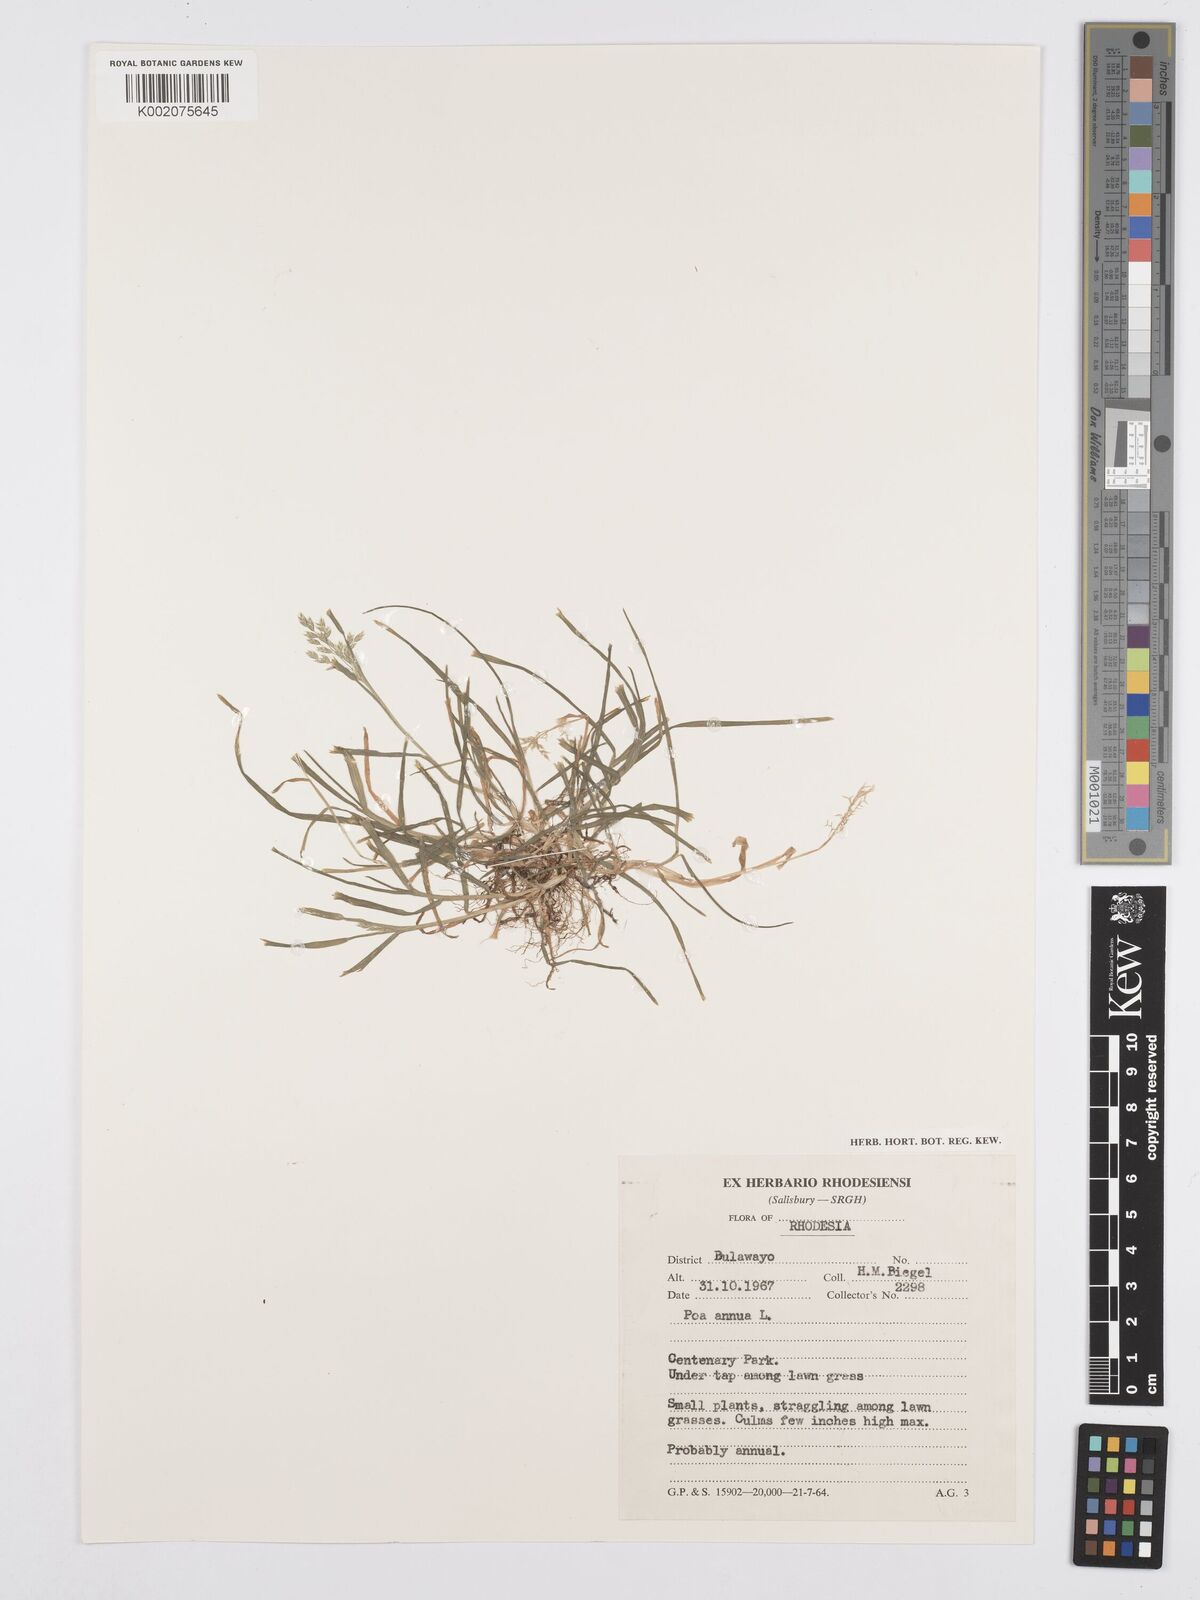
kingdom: Plantae
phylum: Tracheophyta
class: Liliopsida
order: Poales
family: Poaceae
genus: Poa
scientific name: Poa annua
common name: Annual bluegrass
